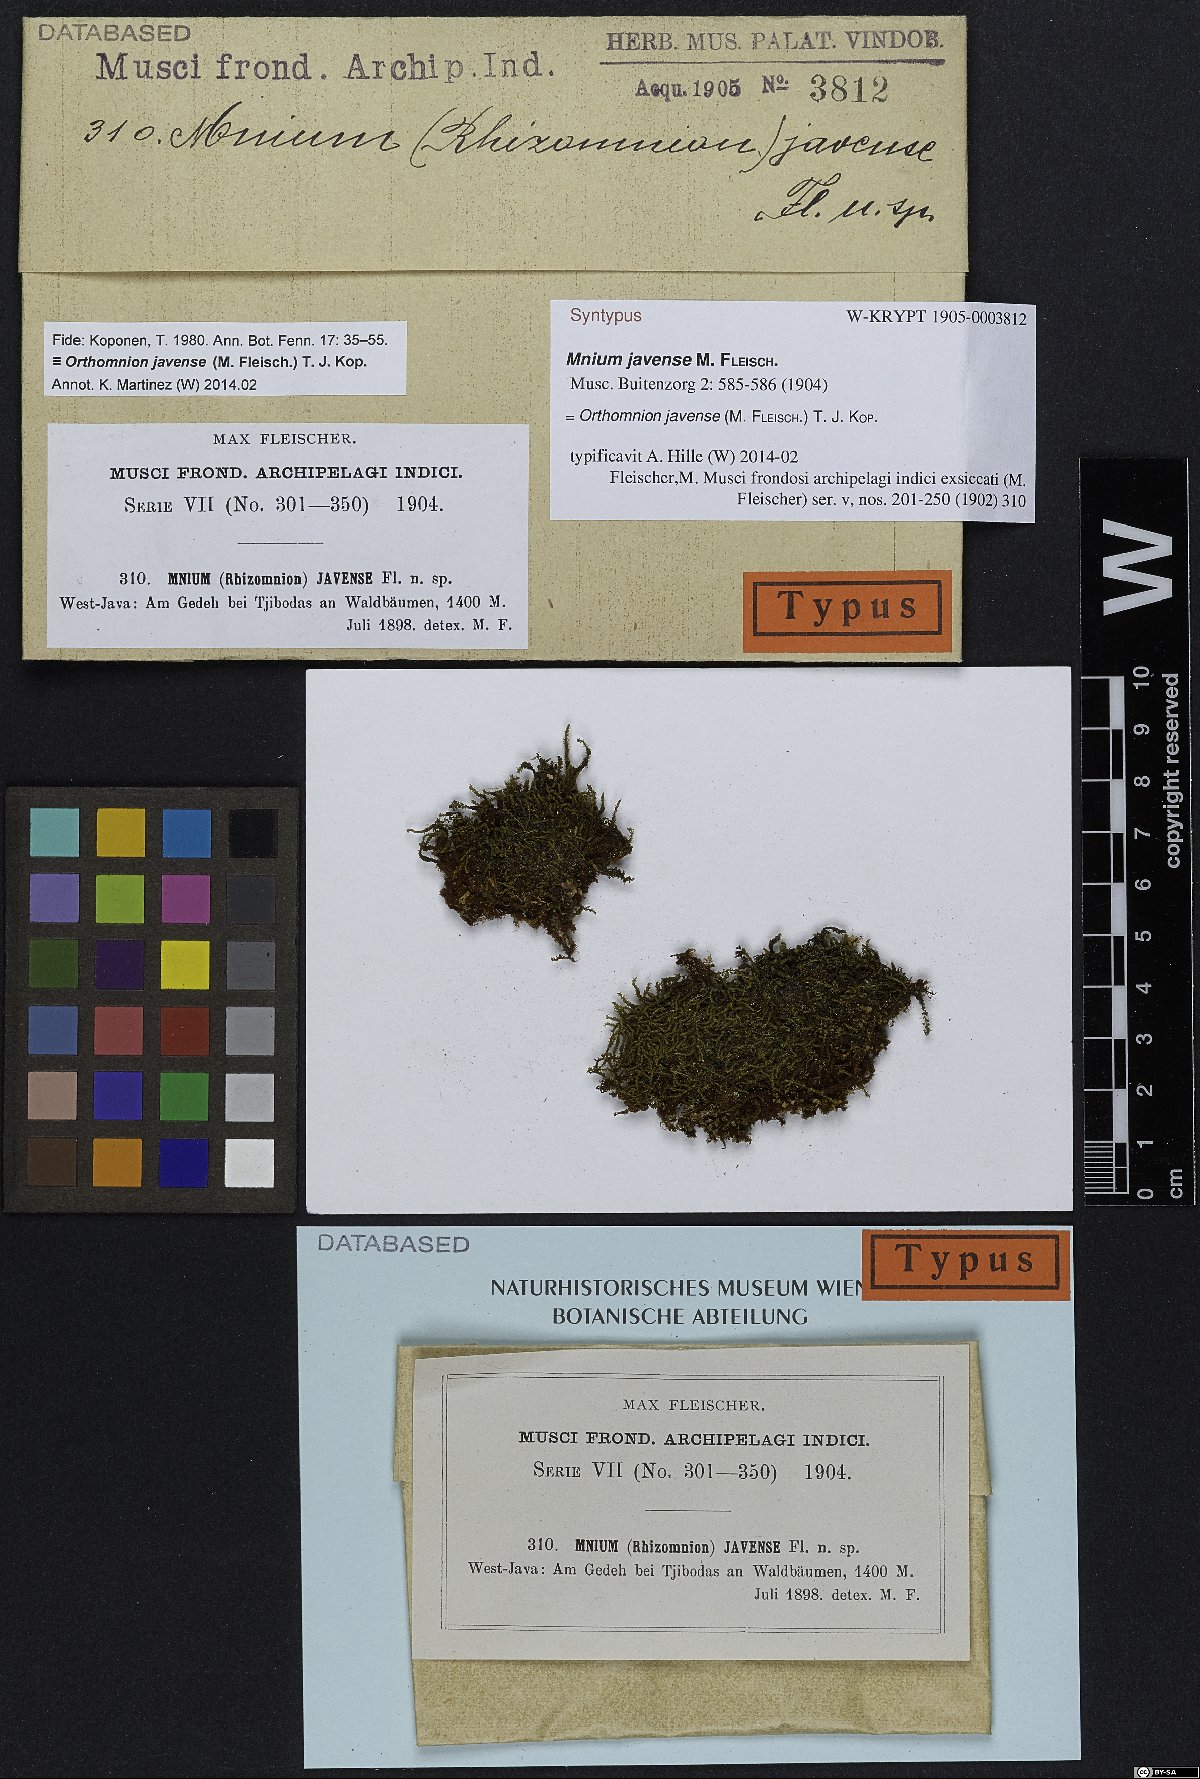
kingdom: Plantae
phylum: Bryophyta
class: Bryopsida
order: Bryales
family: Mniaceae
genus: Orthomnion
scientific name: Orthomnion javense
